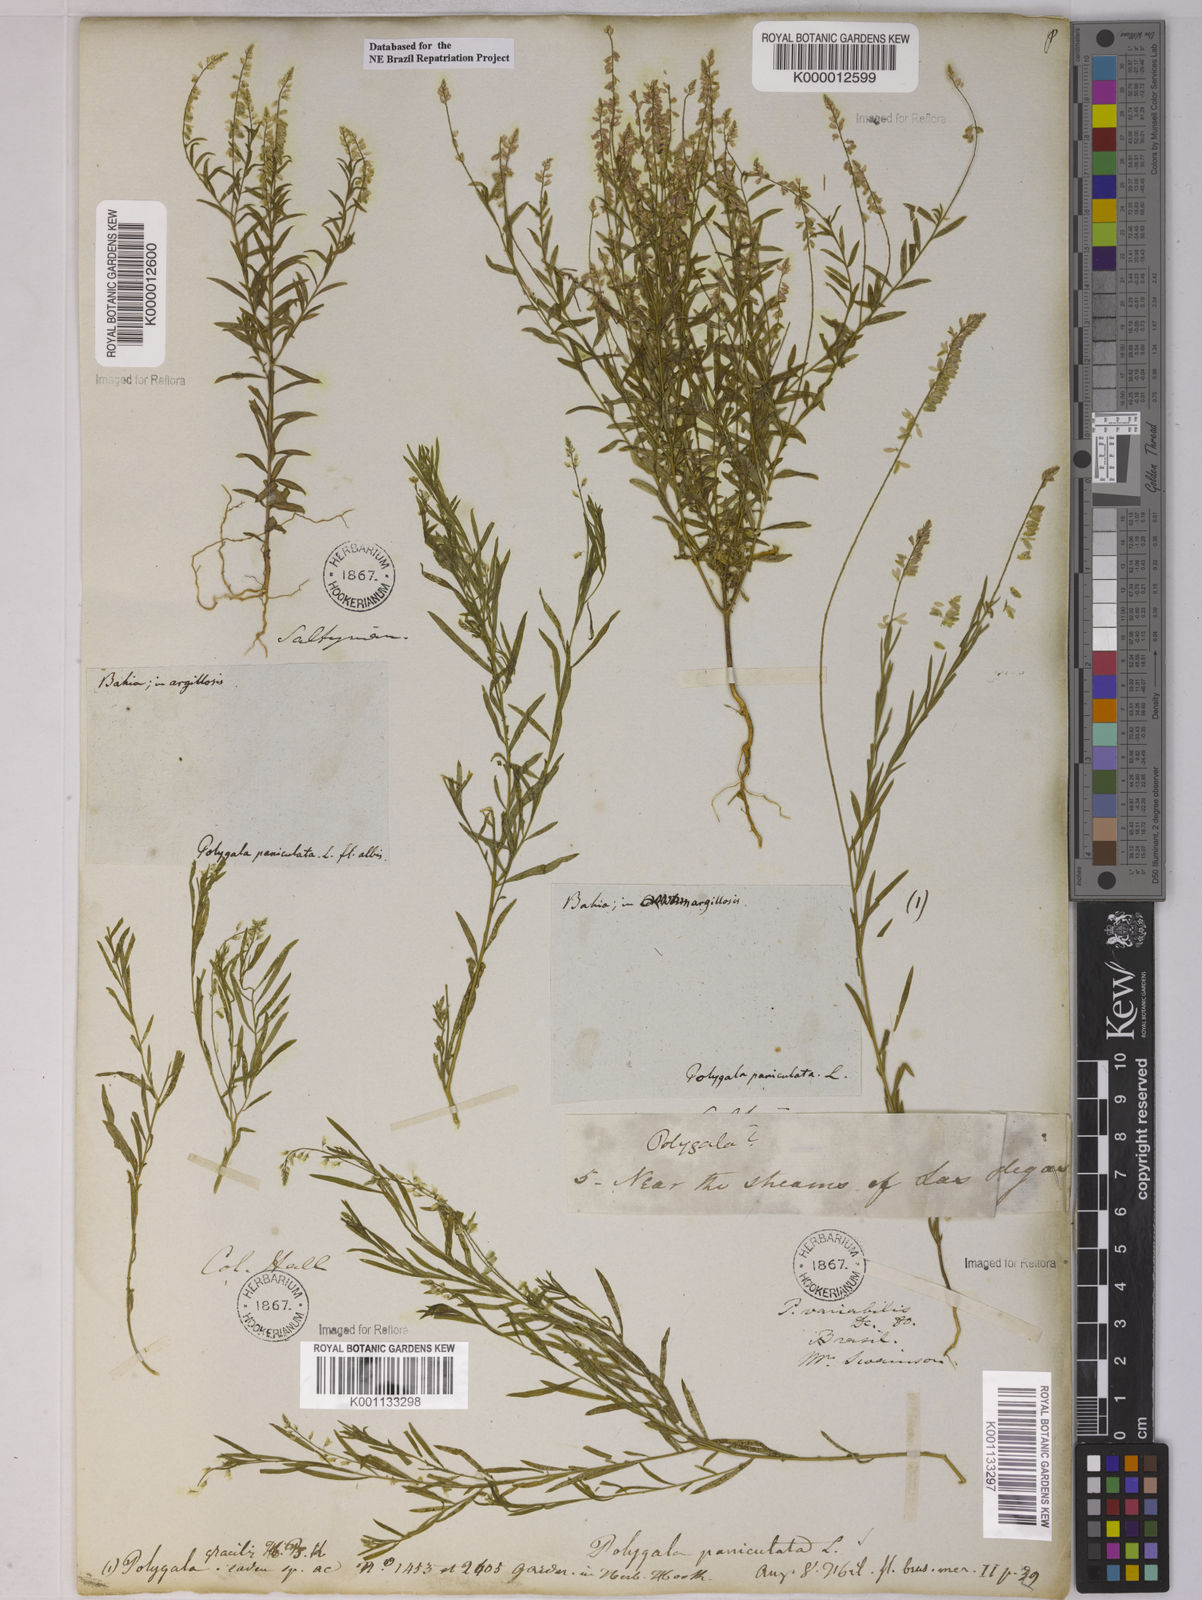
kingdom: Plantae
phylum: Tracheophyta
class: Magnoliopsida
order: Fabales
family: Polygalaceae
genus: Polygala
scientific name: Polygala paniculata
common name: Orosne
